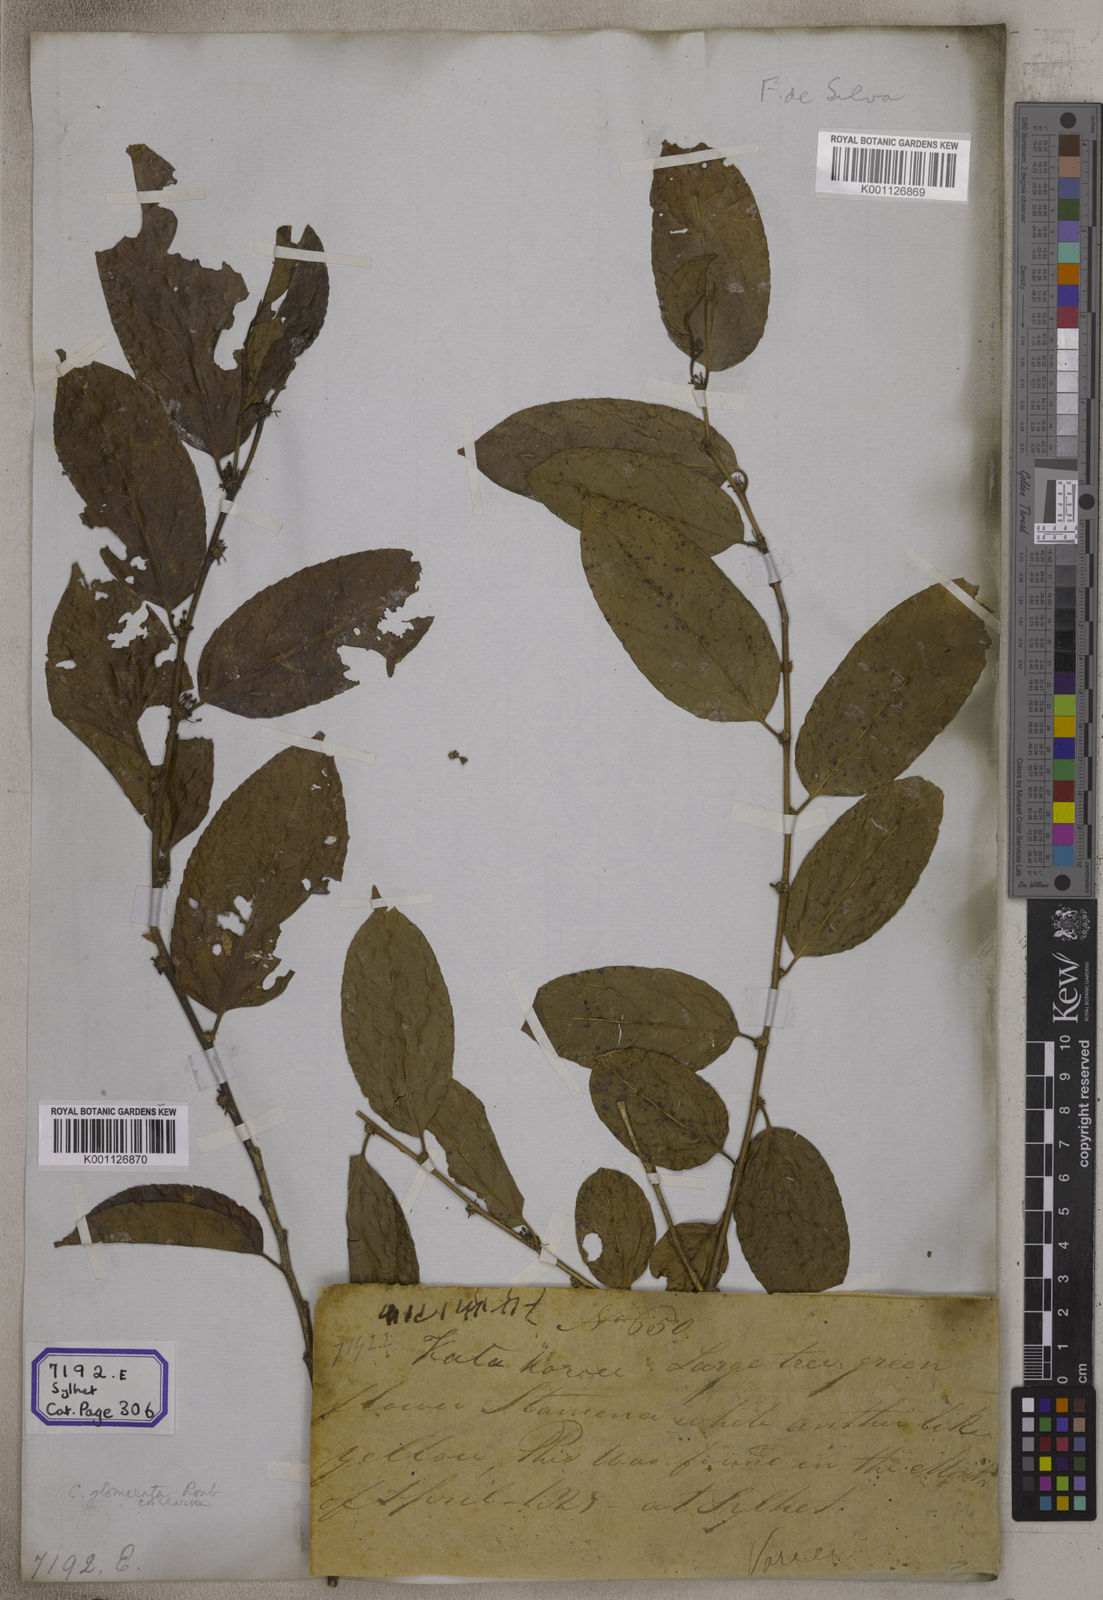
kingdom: Plantae
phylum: Tracheophyta
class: Magnoliopsida
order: Malpighiales
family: Salicaceae
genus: Casearia
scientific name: Casearia
